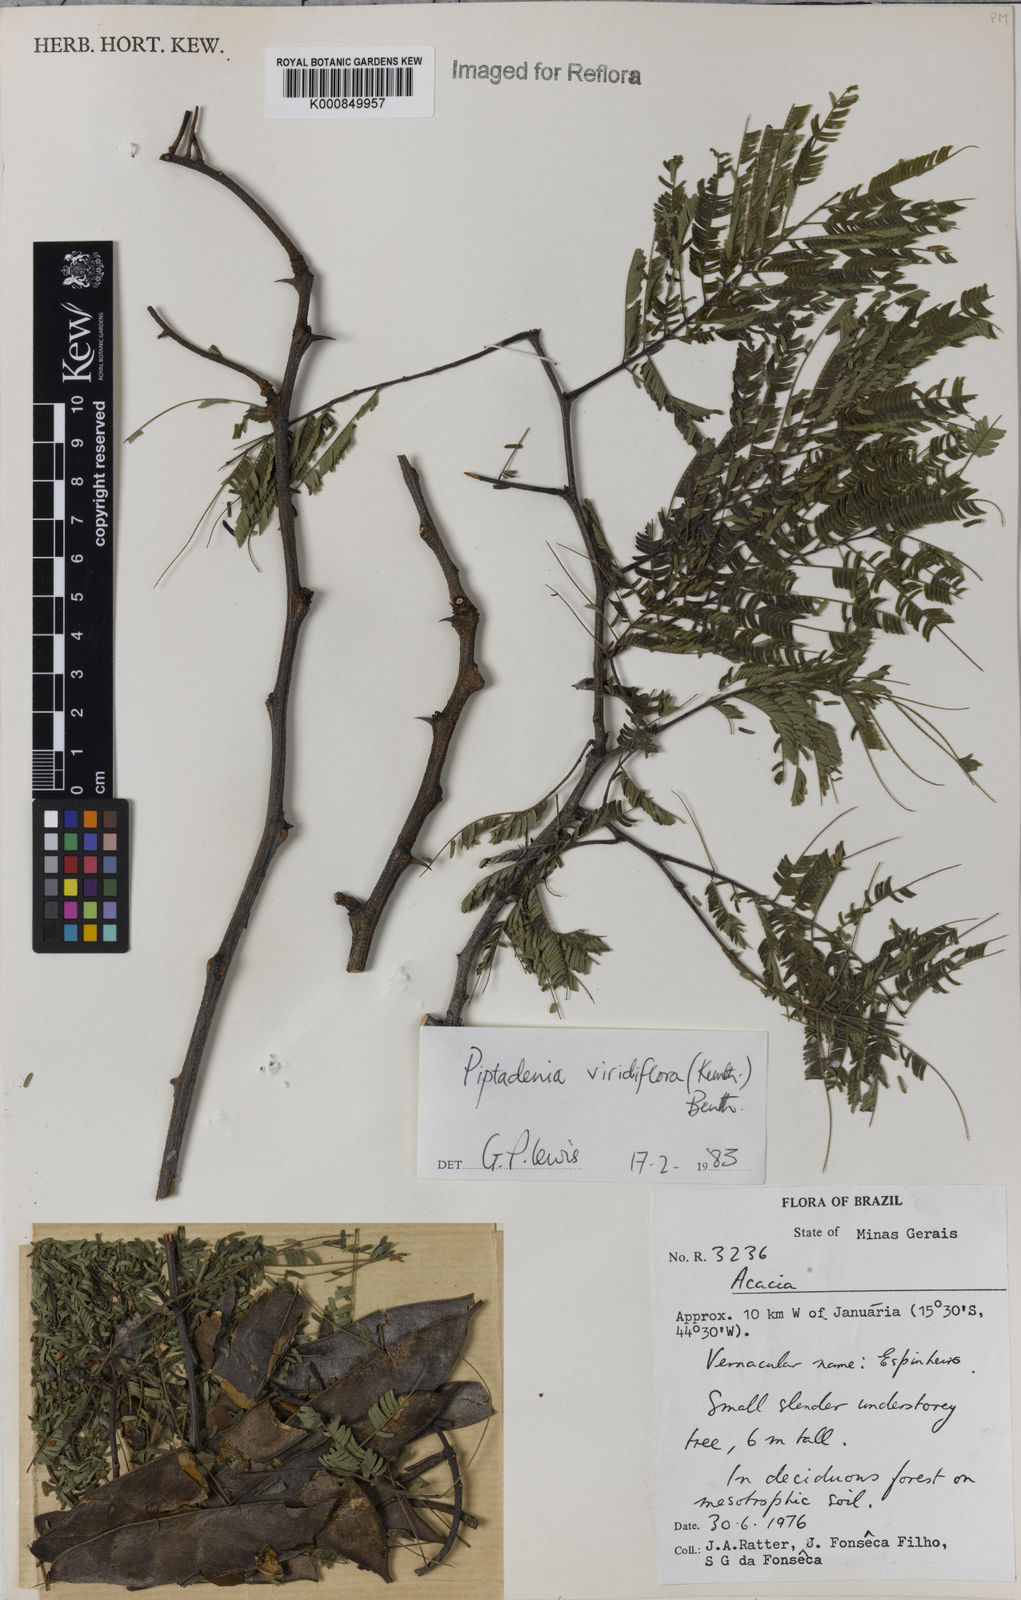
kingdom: Plantae
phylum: Tracheophyta
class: Magnoliopsida
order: Fabales
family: Fabaceae
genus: Lachesiodendron
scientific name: Lachesiodendron viridiflorum
